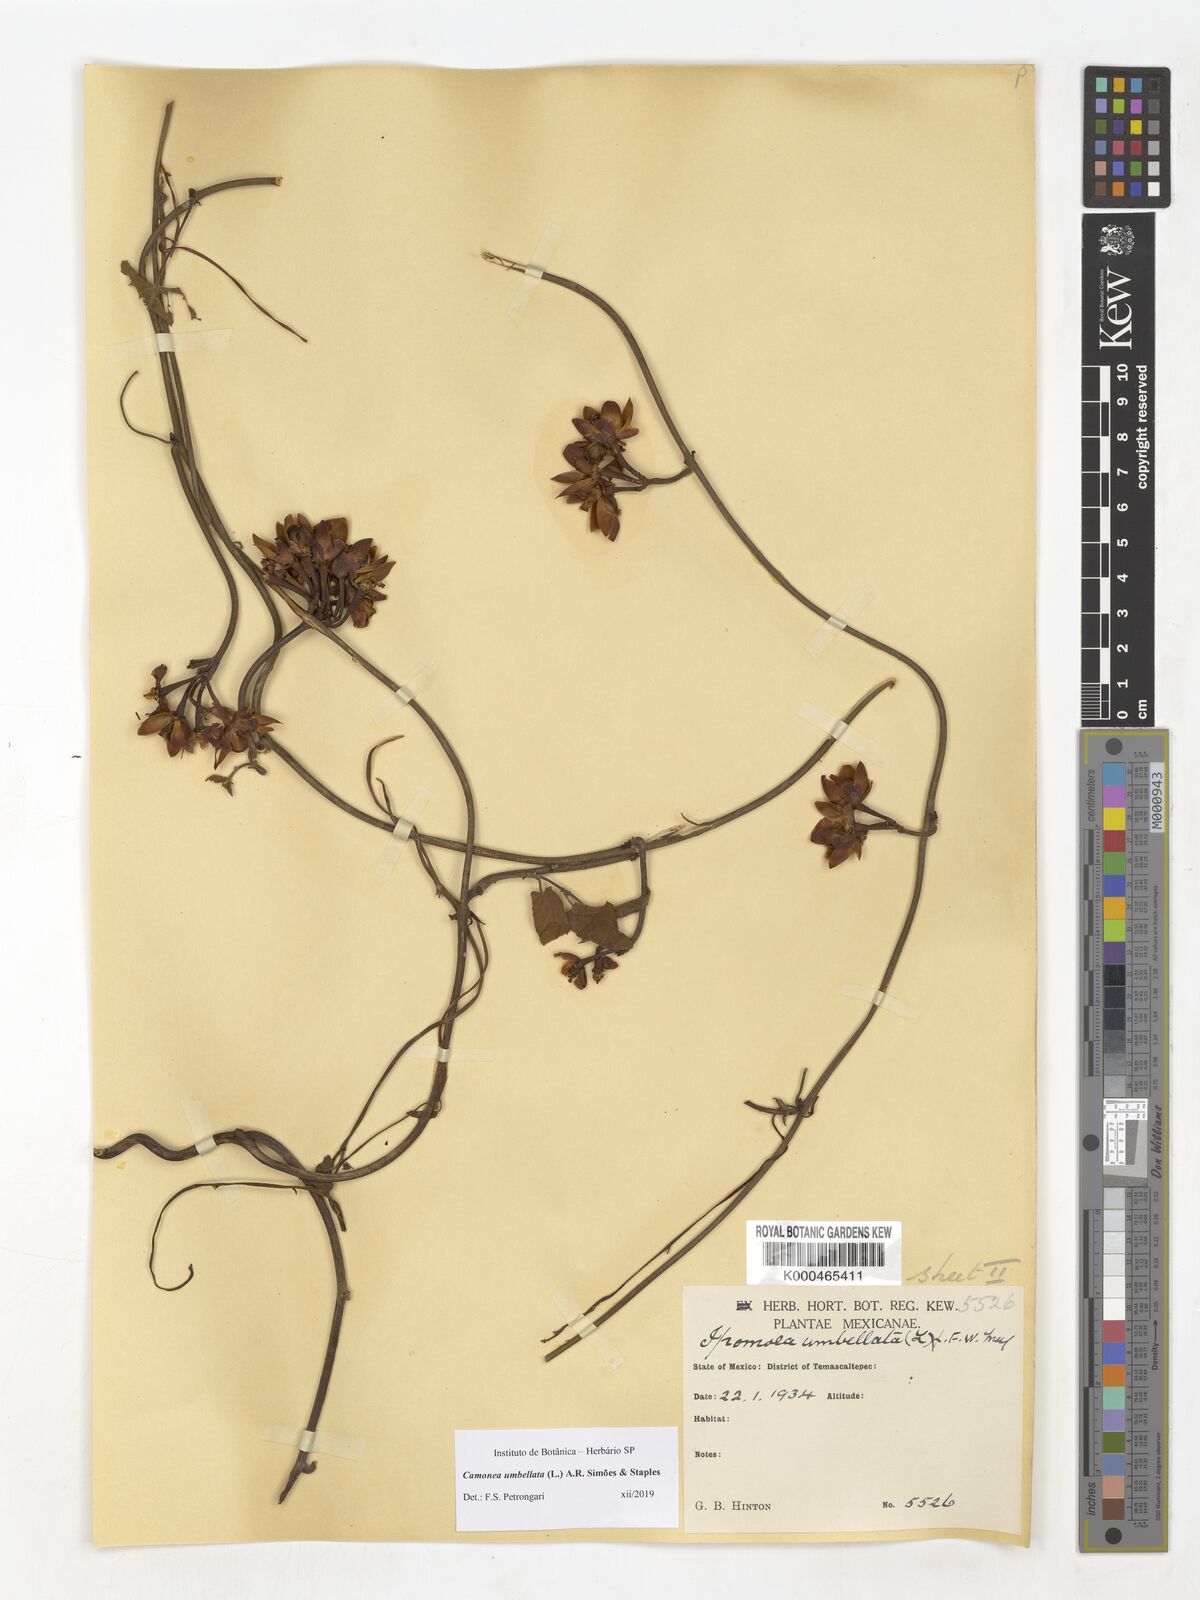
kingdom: Plantae
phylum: Tracheophyta
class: Magnoliopsida
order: Solanales
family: Convolvulaceae
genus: Camonea
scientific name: Camonea umbellata
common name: Hogvine
